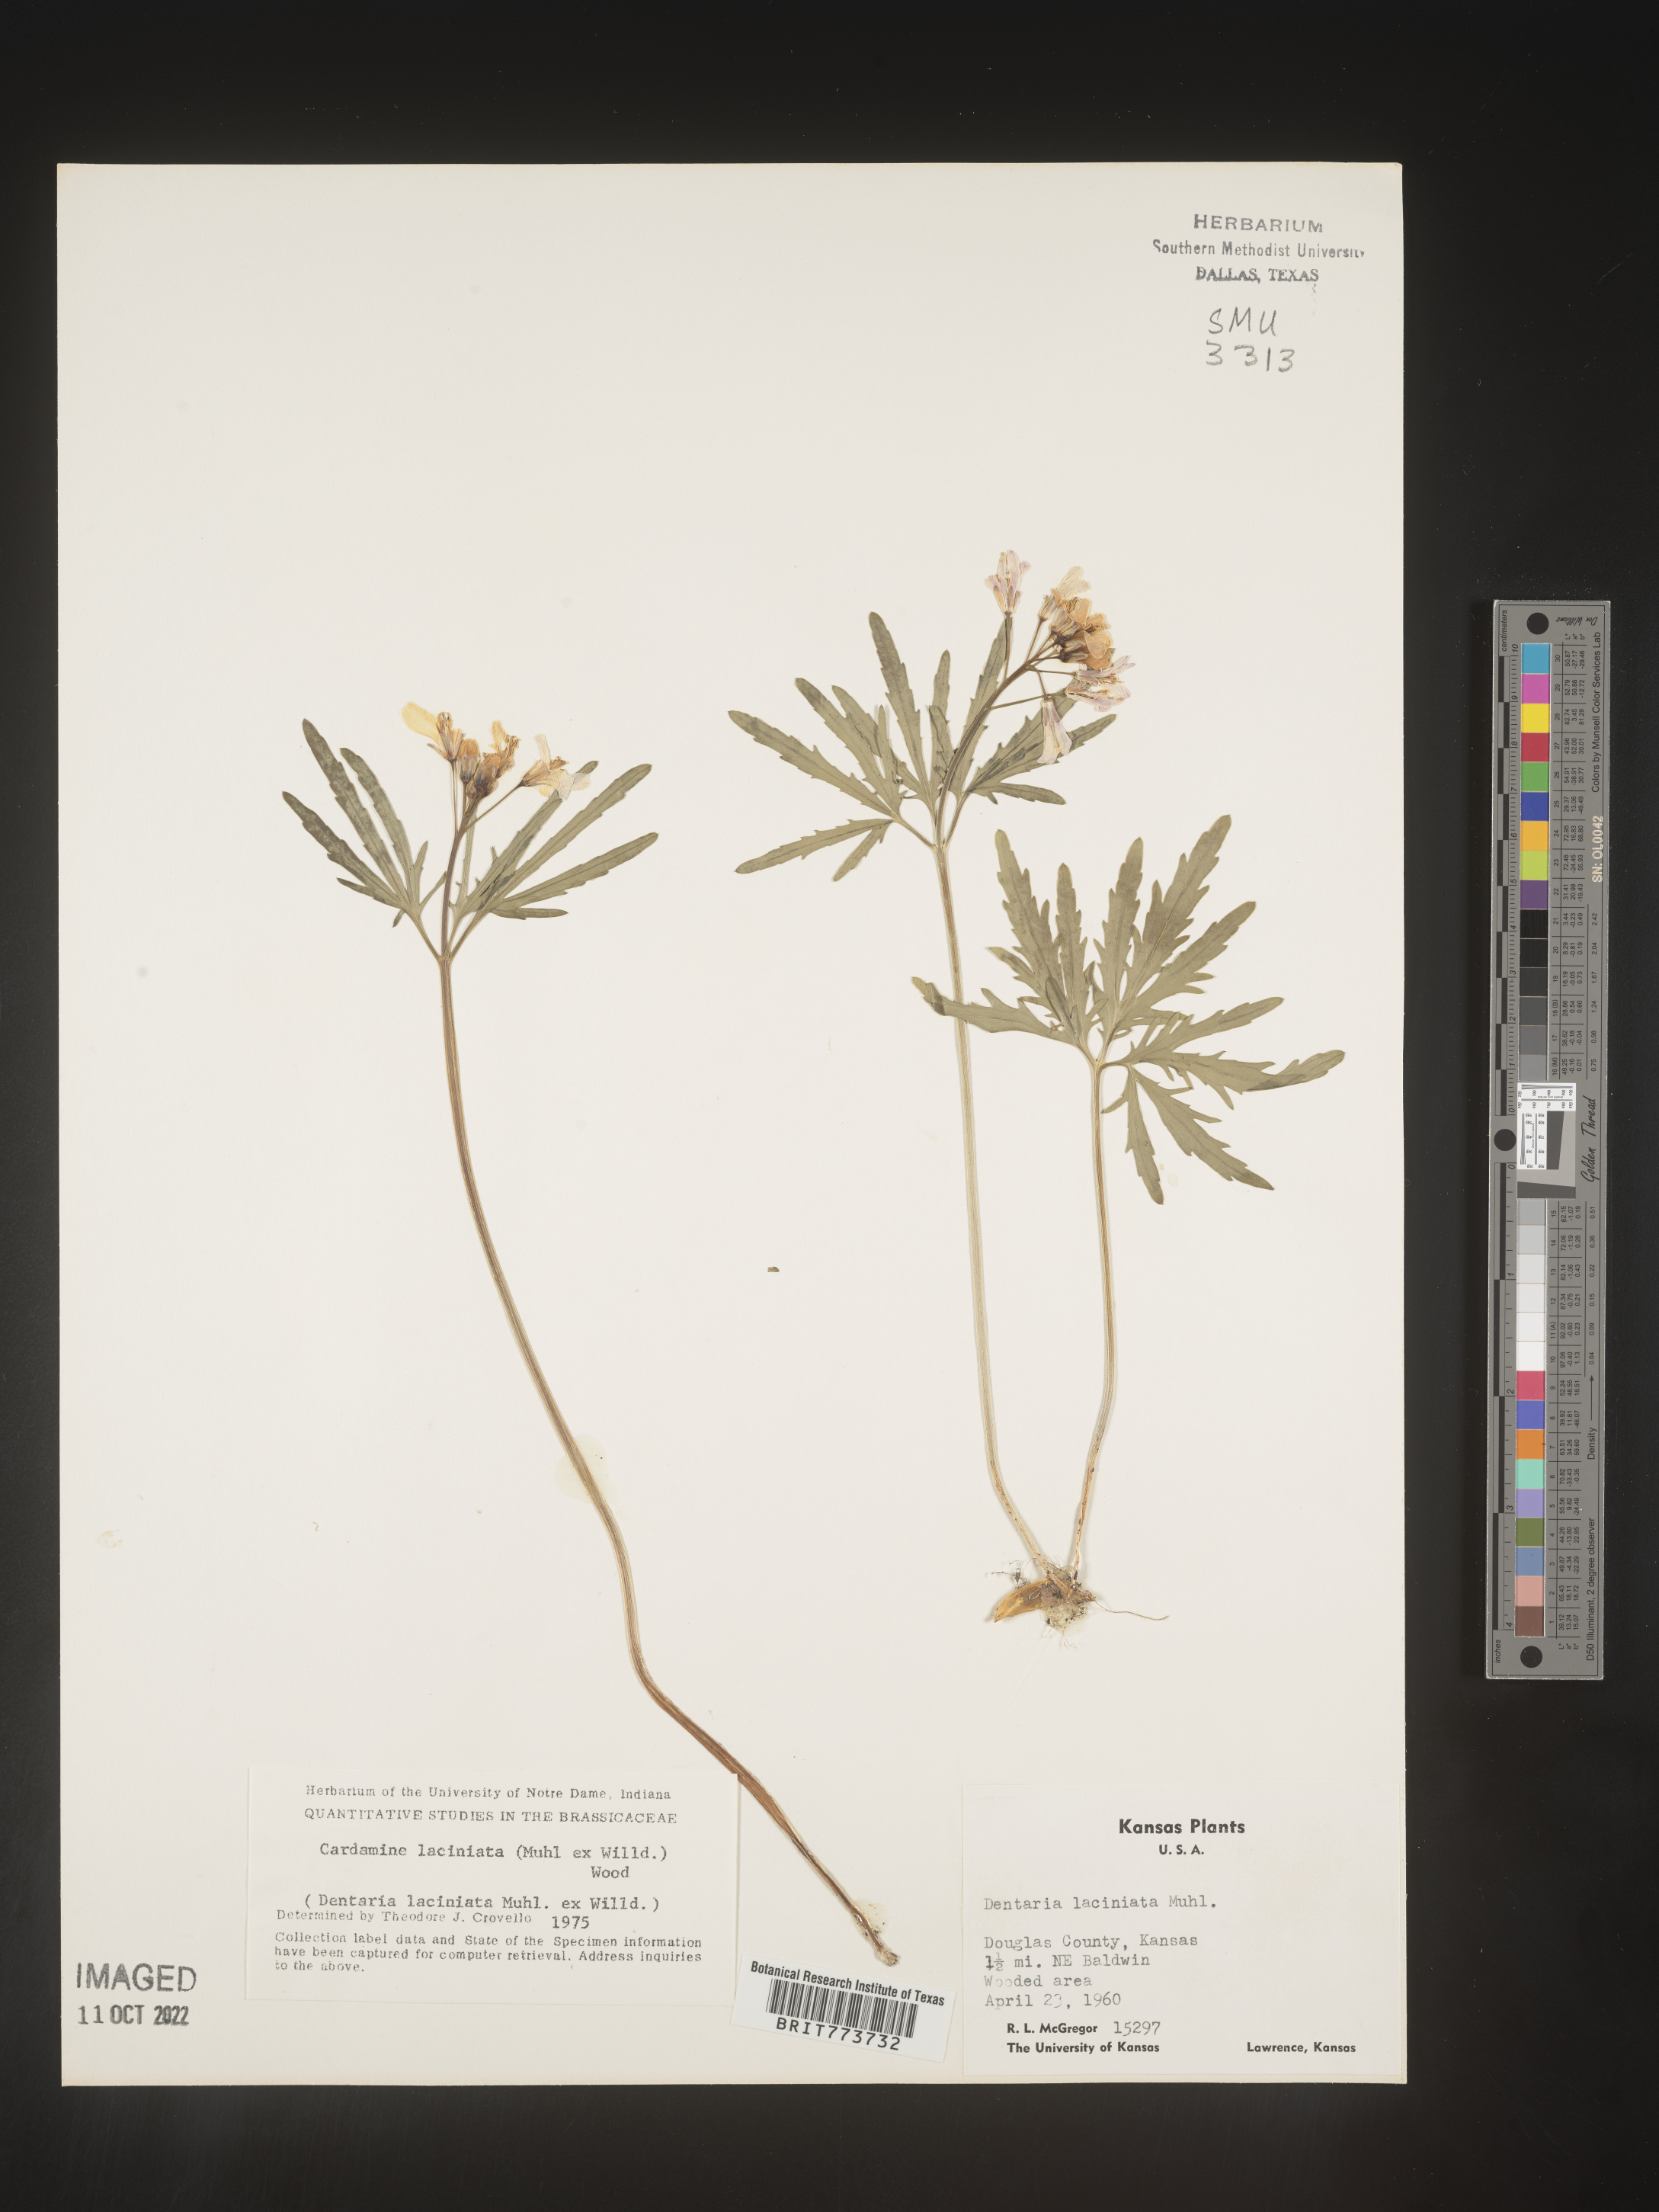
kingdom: Plantae
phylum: Tracheophyta
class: Magnoliopsida
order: Brassicales
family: Brassicaceae
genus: Rorippa
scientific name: Rorippa laciniata
